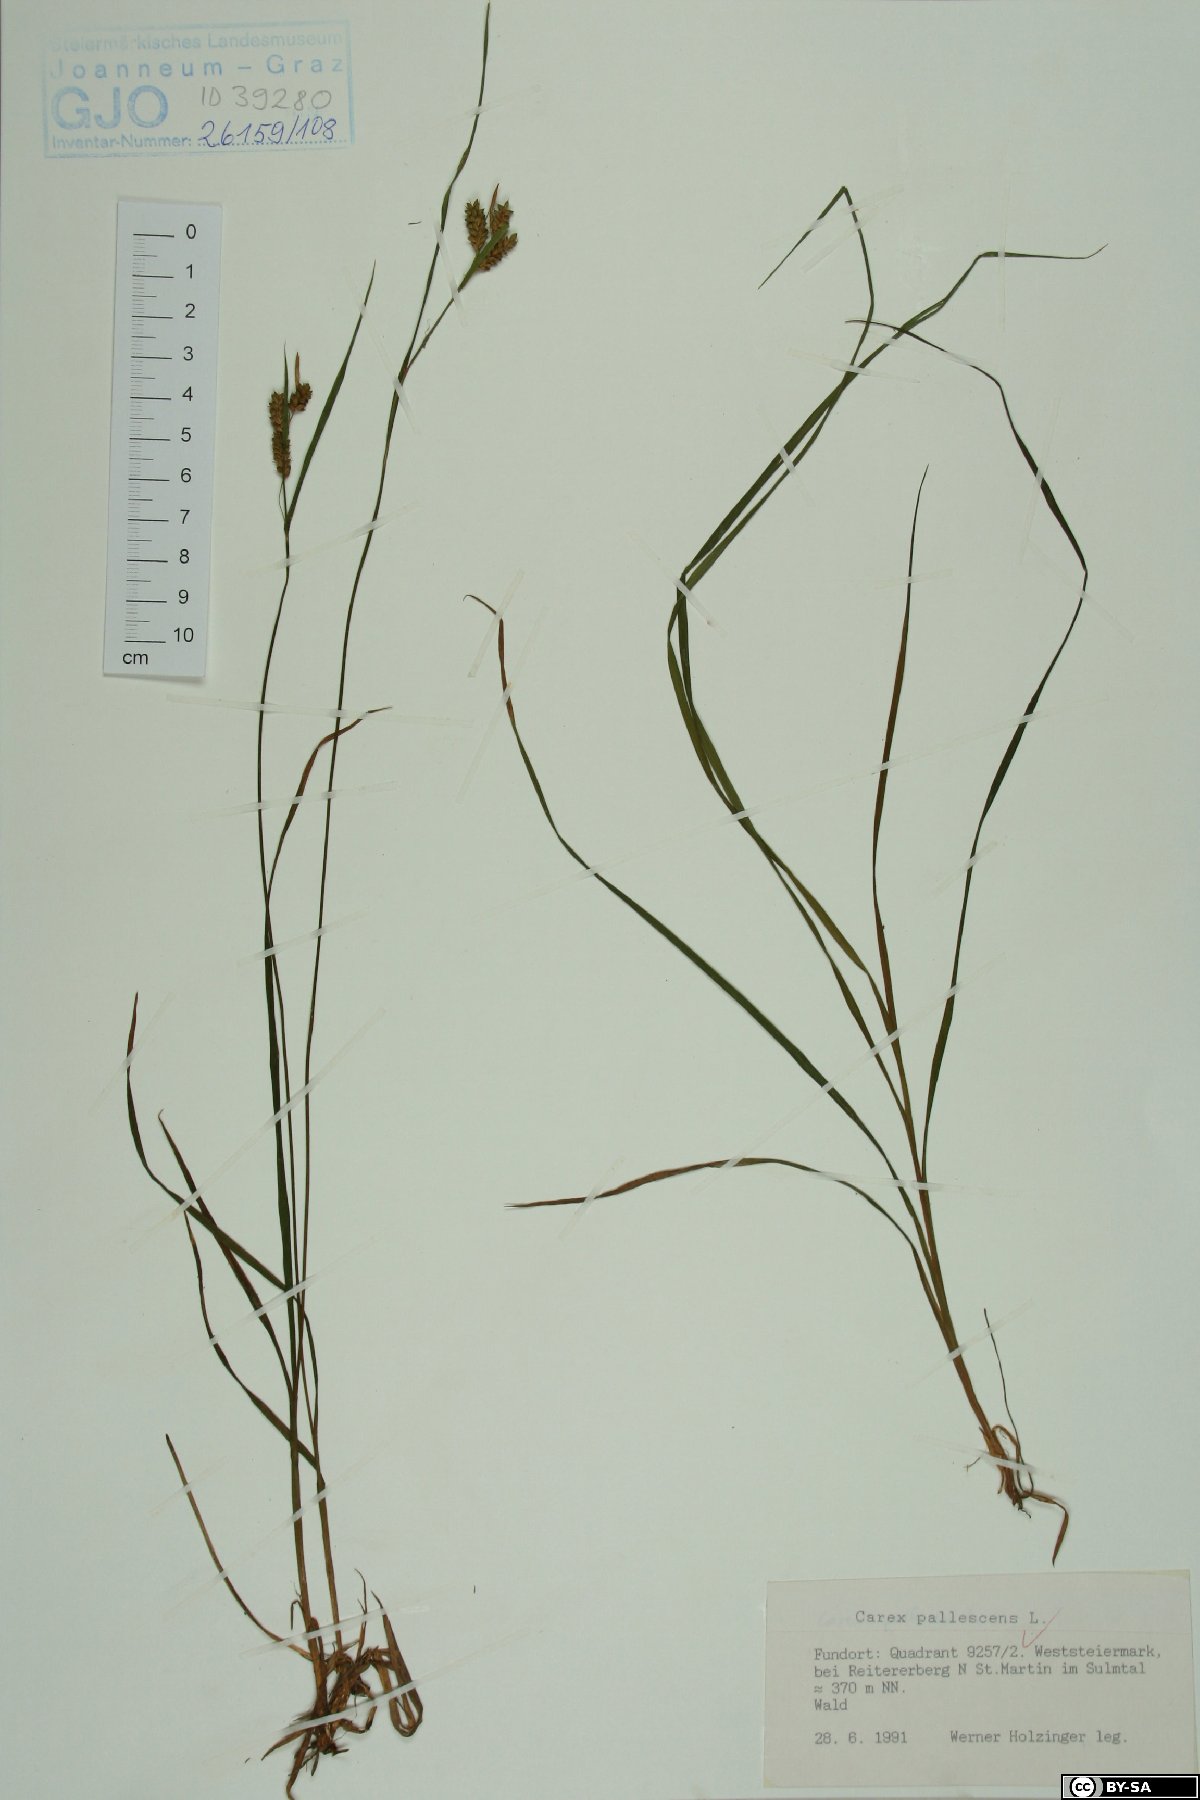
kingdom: Plantae
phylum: Tracheophyta
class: Liliopsida
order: Poales
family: Cyperaceae
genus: Carex
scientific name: Carex pallescens
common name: Pale sedge
